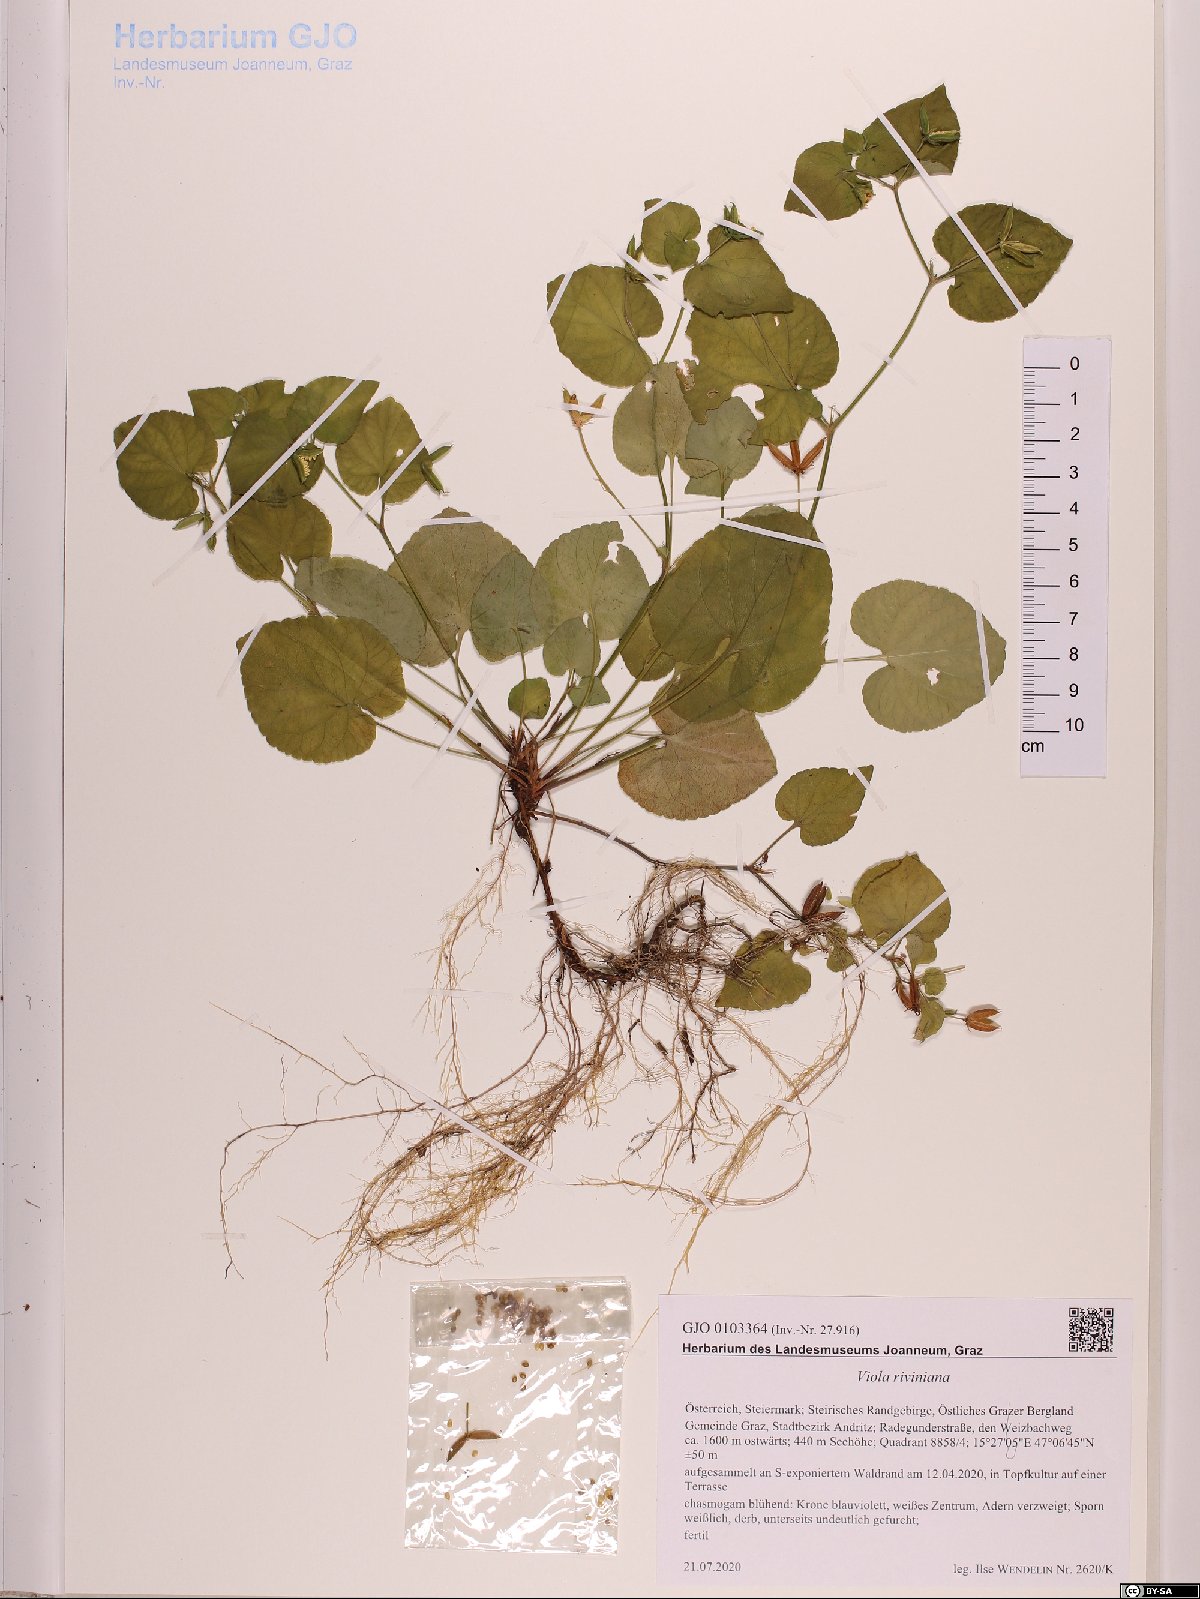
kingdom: Plantae
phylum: Tracheophyta
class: Magnoliopsida
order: Malpighiales
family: Violaceae
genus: Viola
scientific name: Viola riviniana
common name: Common dog-violet
